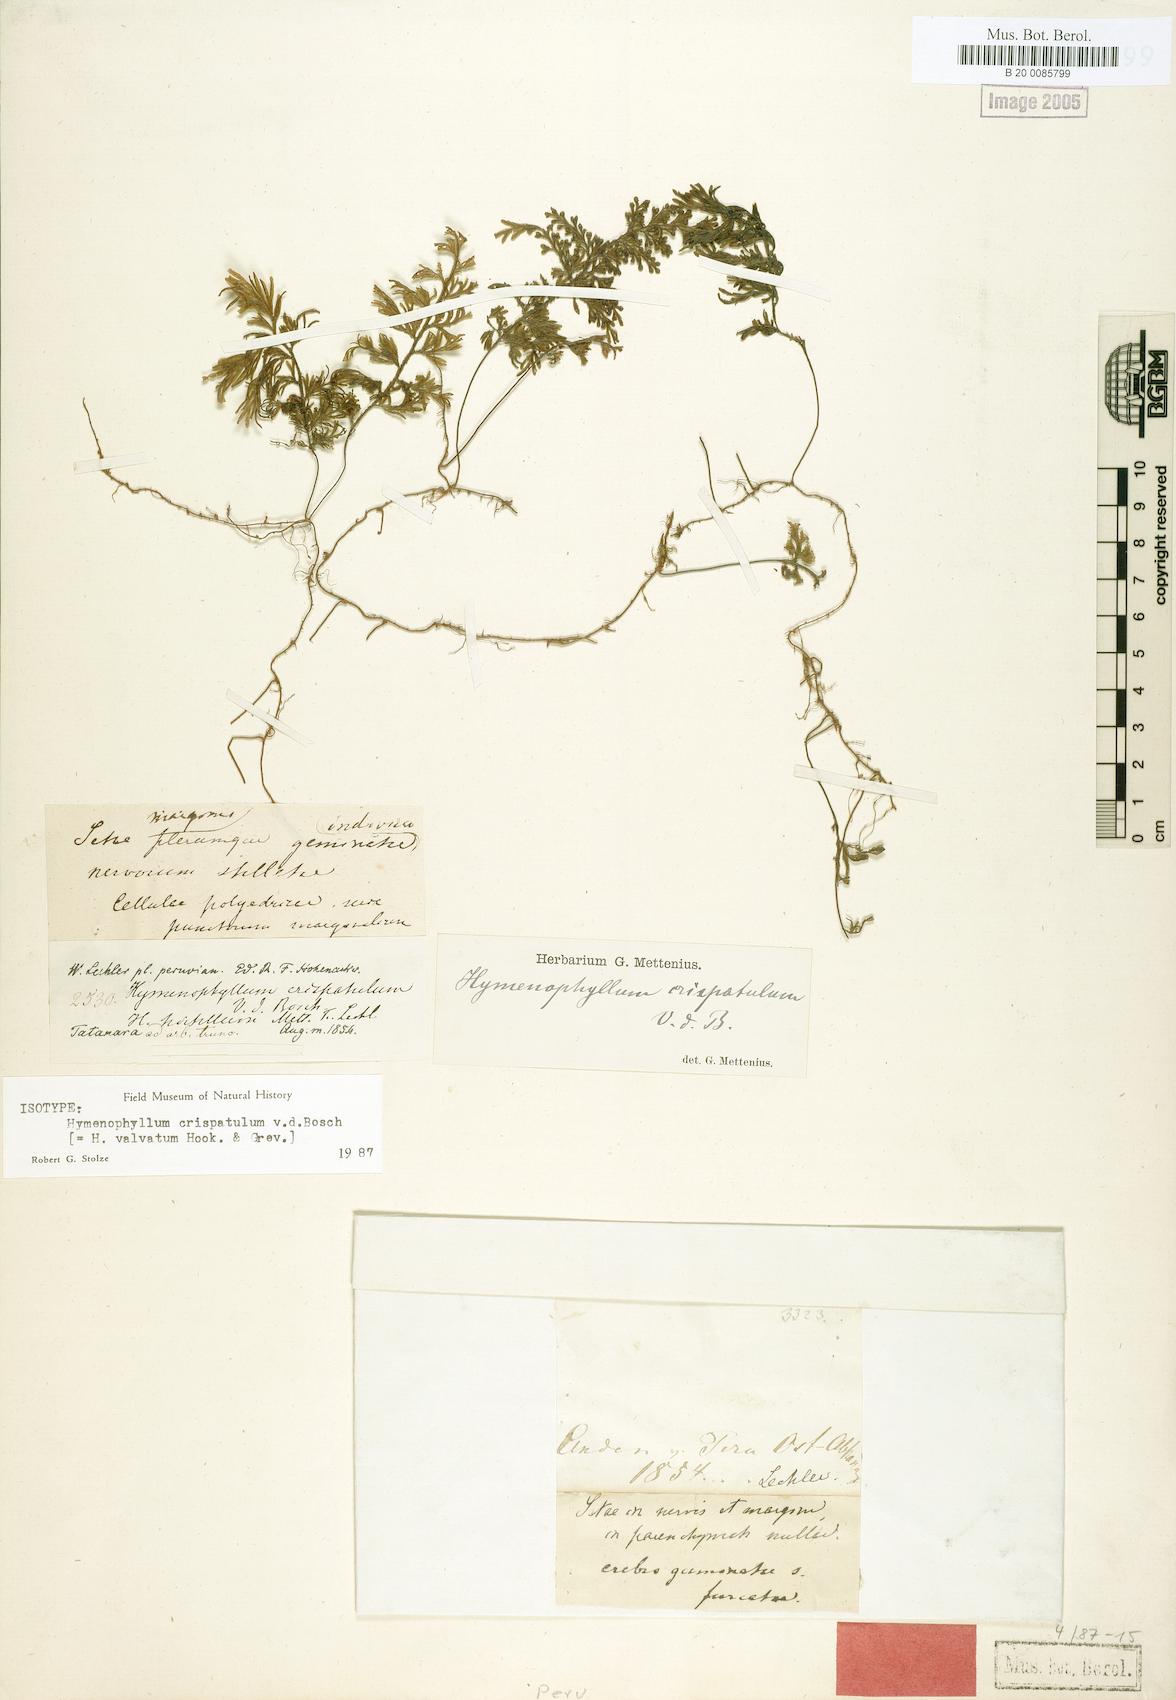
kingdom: Plantae
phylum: Tracheophyta
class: Polypodiopsida
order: Hymenophyllales
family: Hymenophyllaceae
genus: Hymenophyllum
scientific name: Hymenophyllum valvatum
